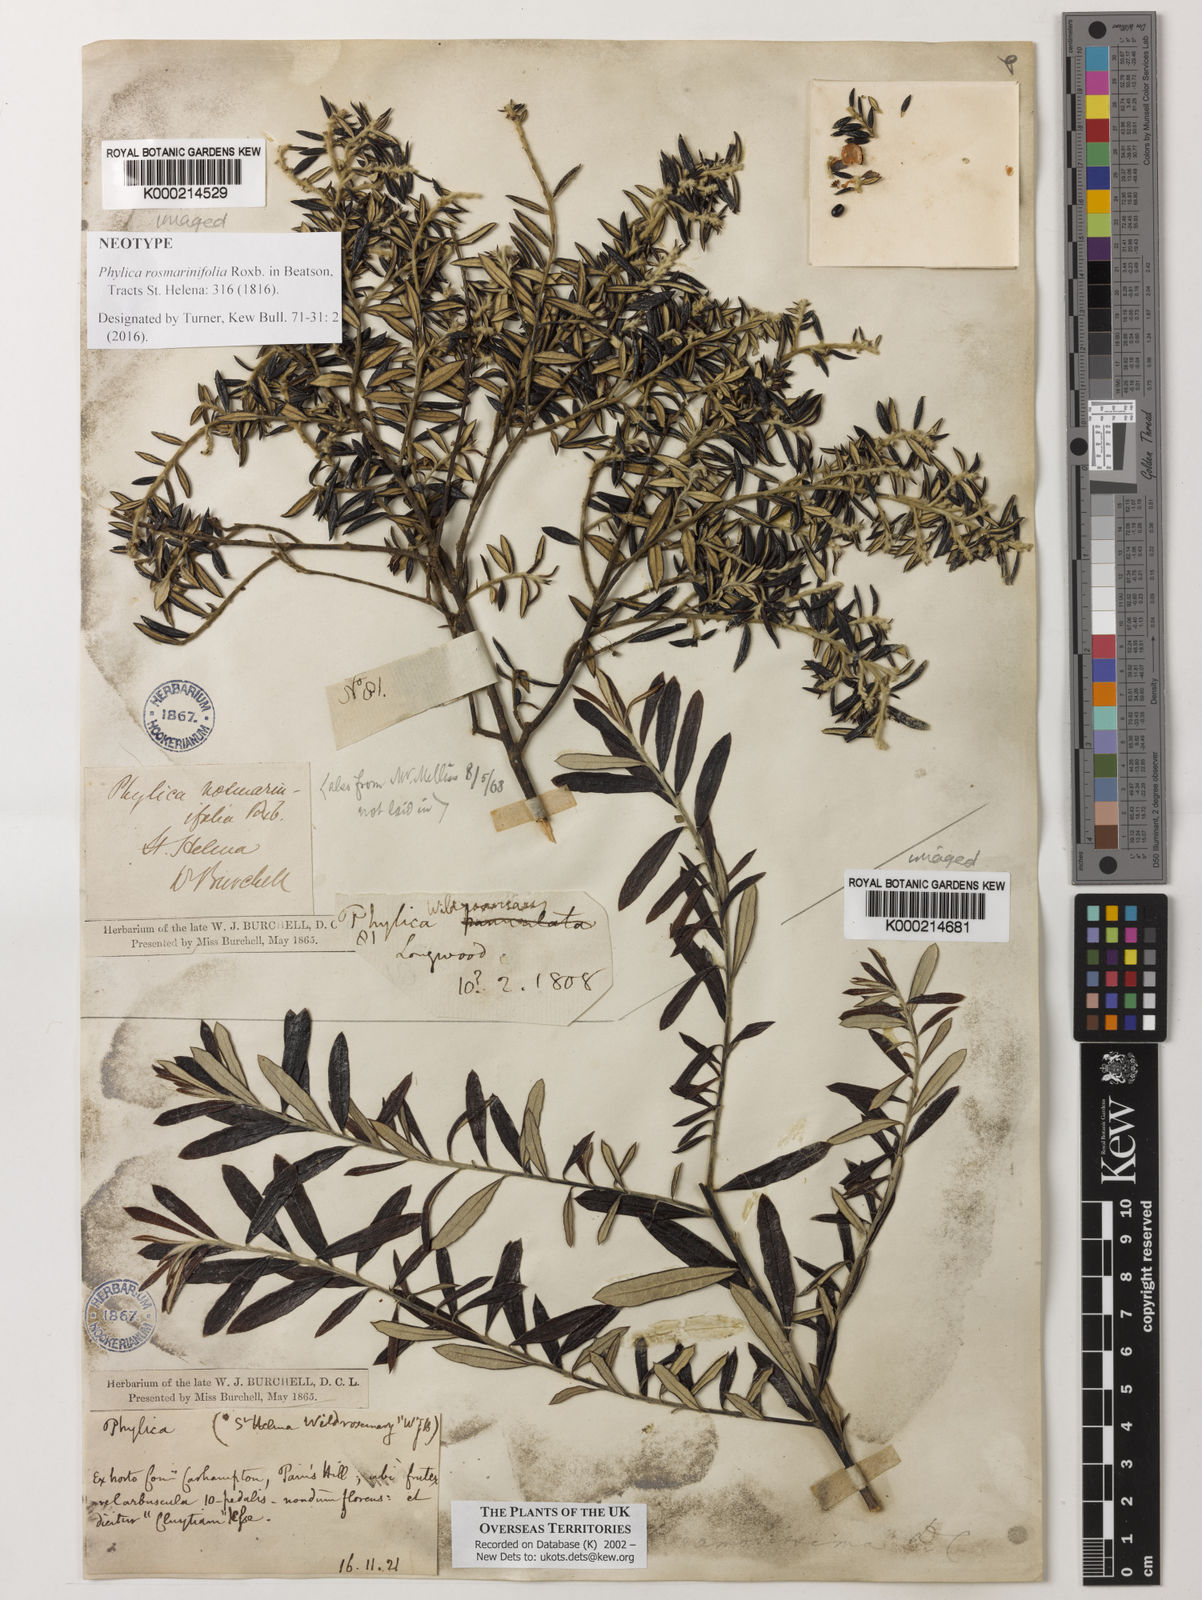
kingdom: Plantae
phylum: Tracheophyta
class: Magnoliopsida
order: Rosales
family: Rhamnaceae
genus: Phylica
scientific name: Phylica polifolia
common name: Rosemary
